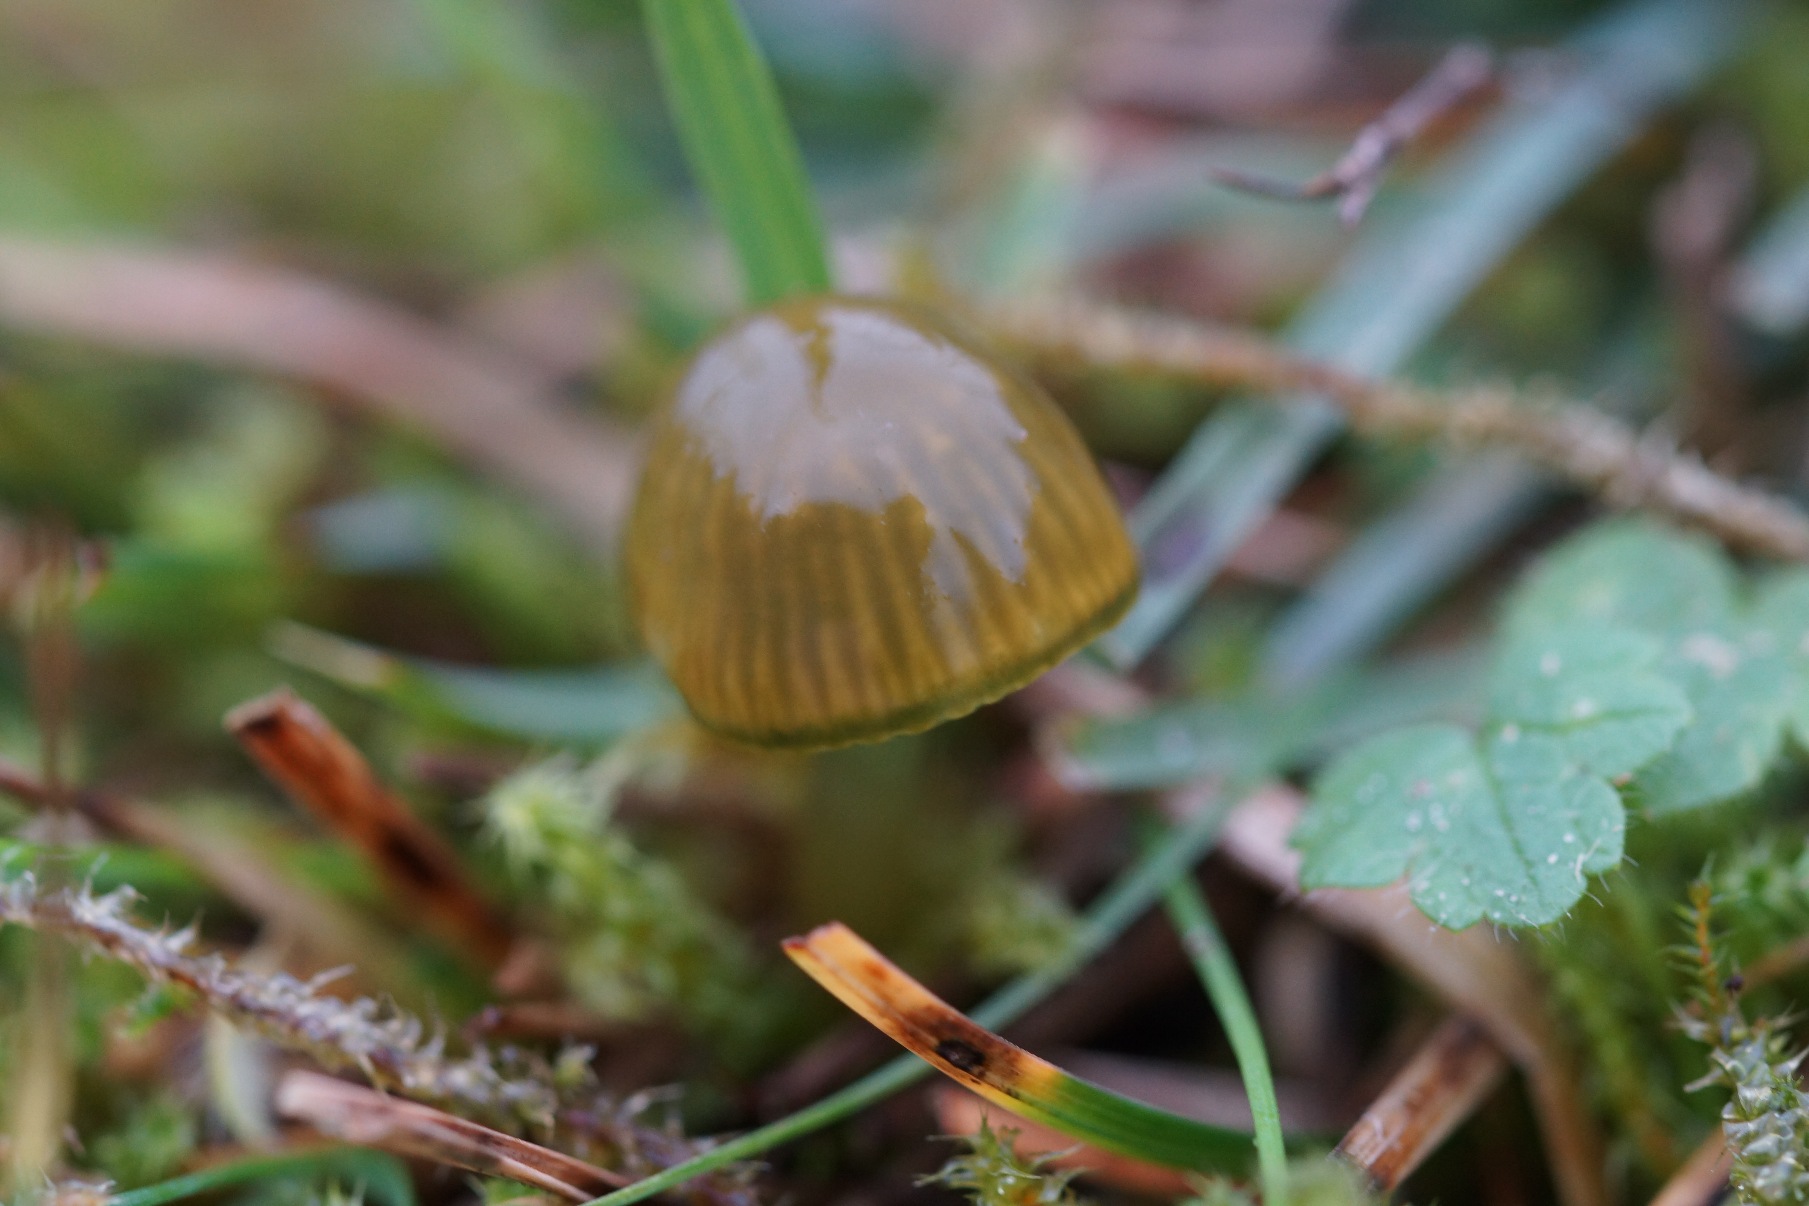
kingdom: Fungi
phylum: Basidiomycota
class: Agaricomycetes
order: Agaricales
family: Hygrophoraceae
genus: Gliophorus
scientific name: Gliophorus psittacinus
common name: Papegøje-vokshat
